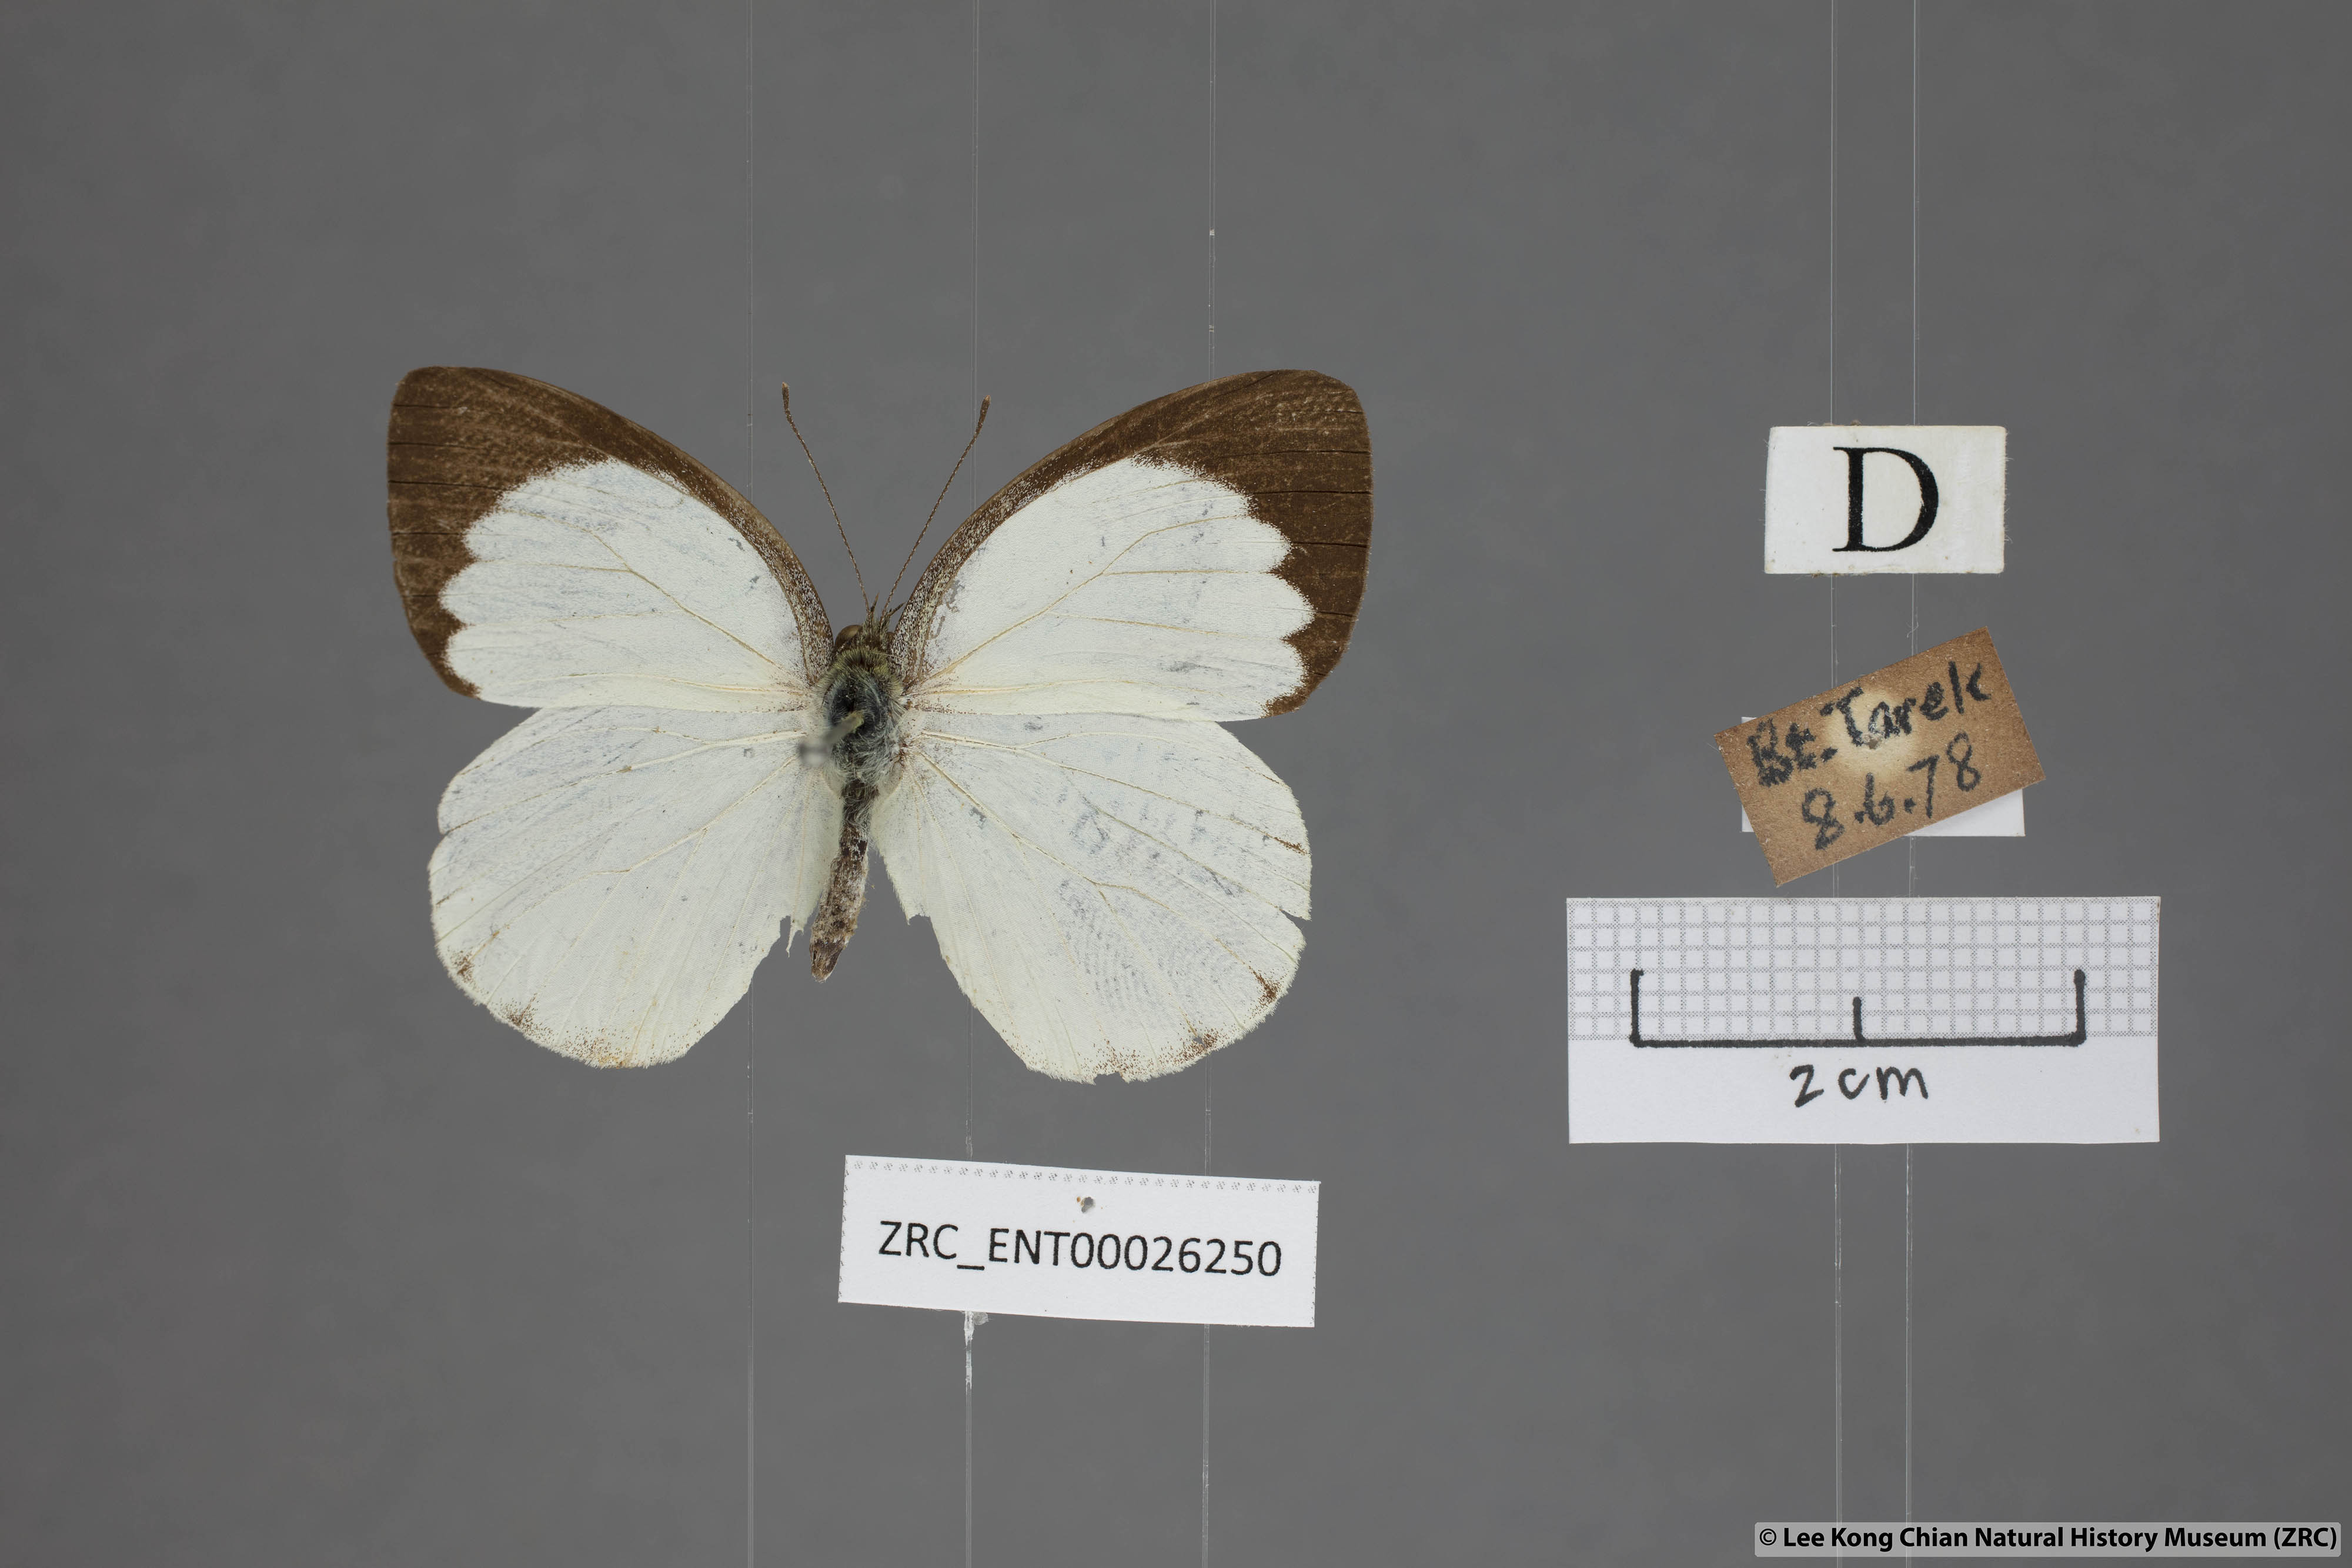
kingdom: Animalia
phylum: Arthropoda
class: Insecta
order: Lepidoptera
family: Pieridae
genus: Phrissura
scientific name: Phrissura aegis
